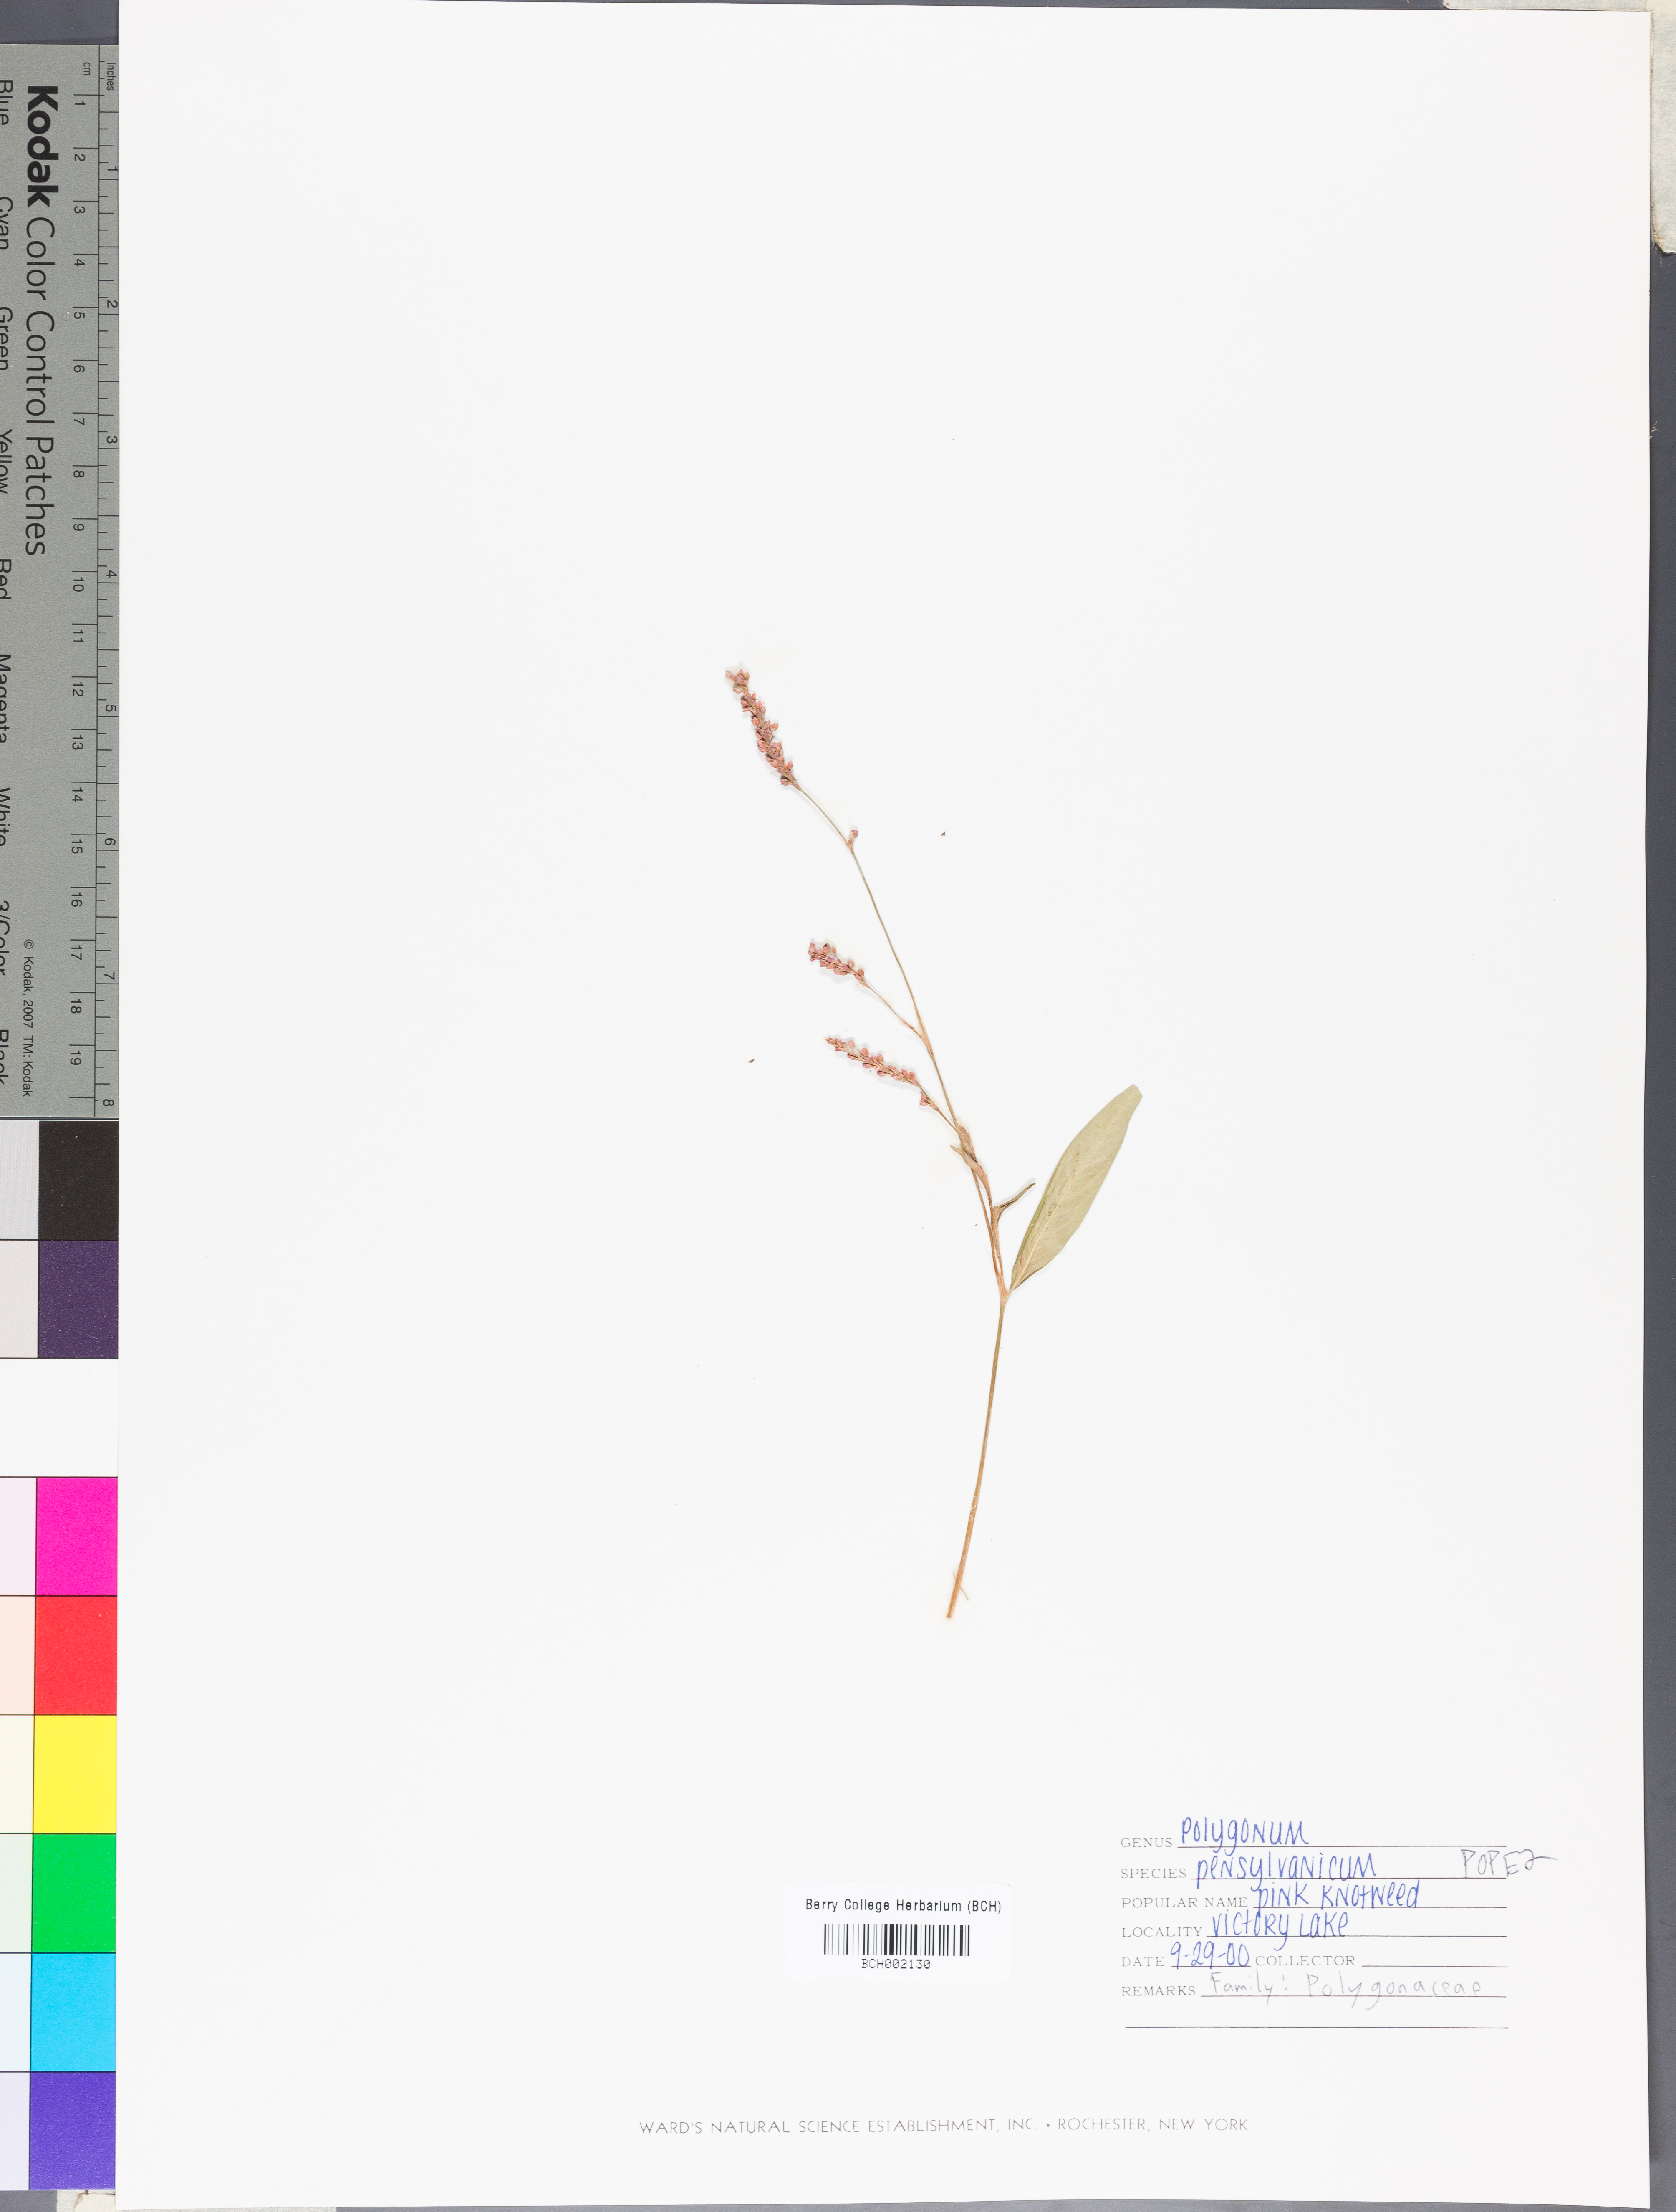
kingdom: Plantae
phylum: Tracheophyta
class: Magnoliopsida
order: Caryophyllales
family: Polygonaceae
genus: Persicaria
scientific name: Persicaria pensylvanica
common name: Pinkweed
